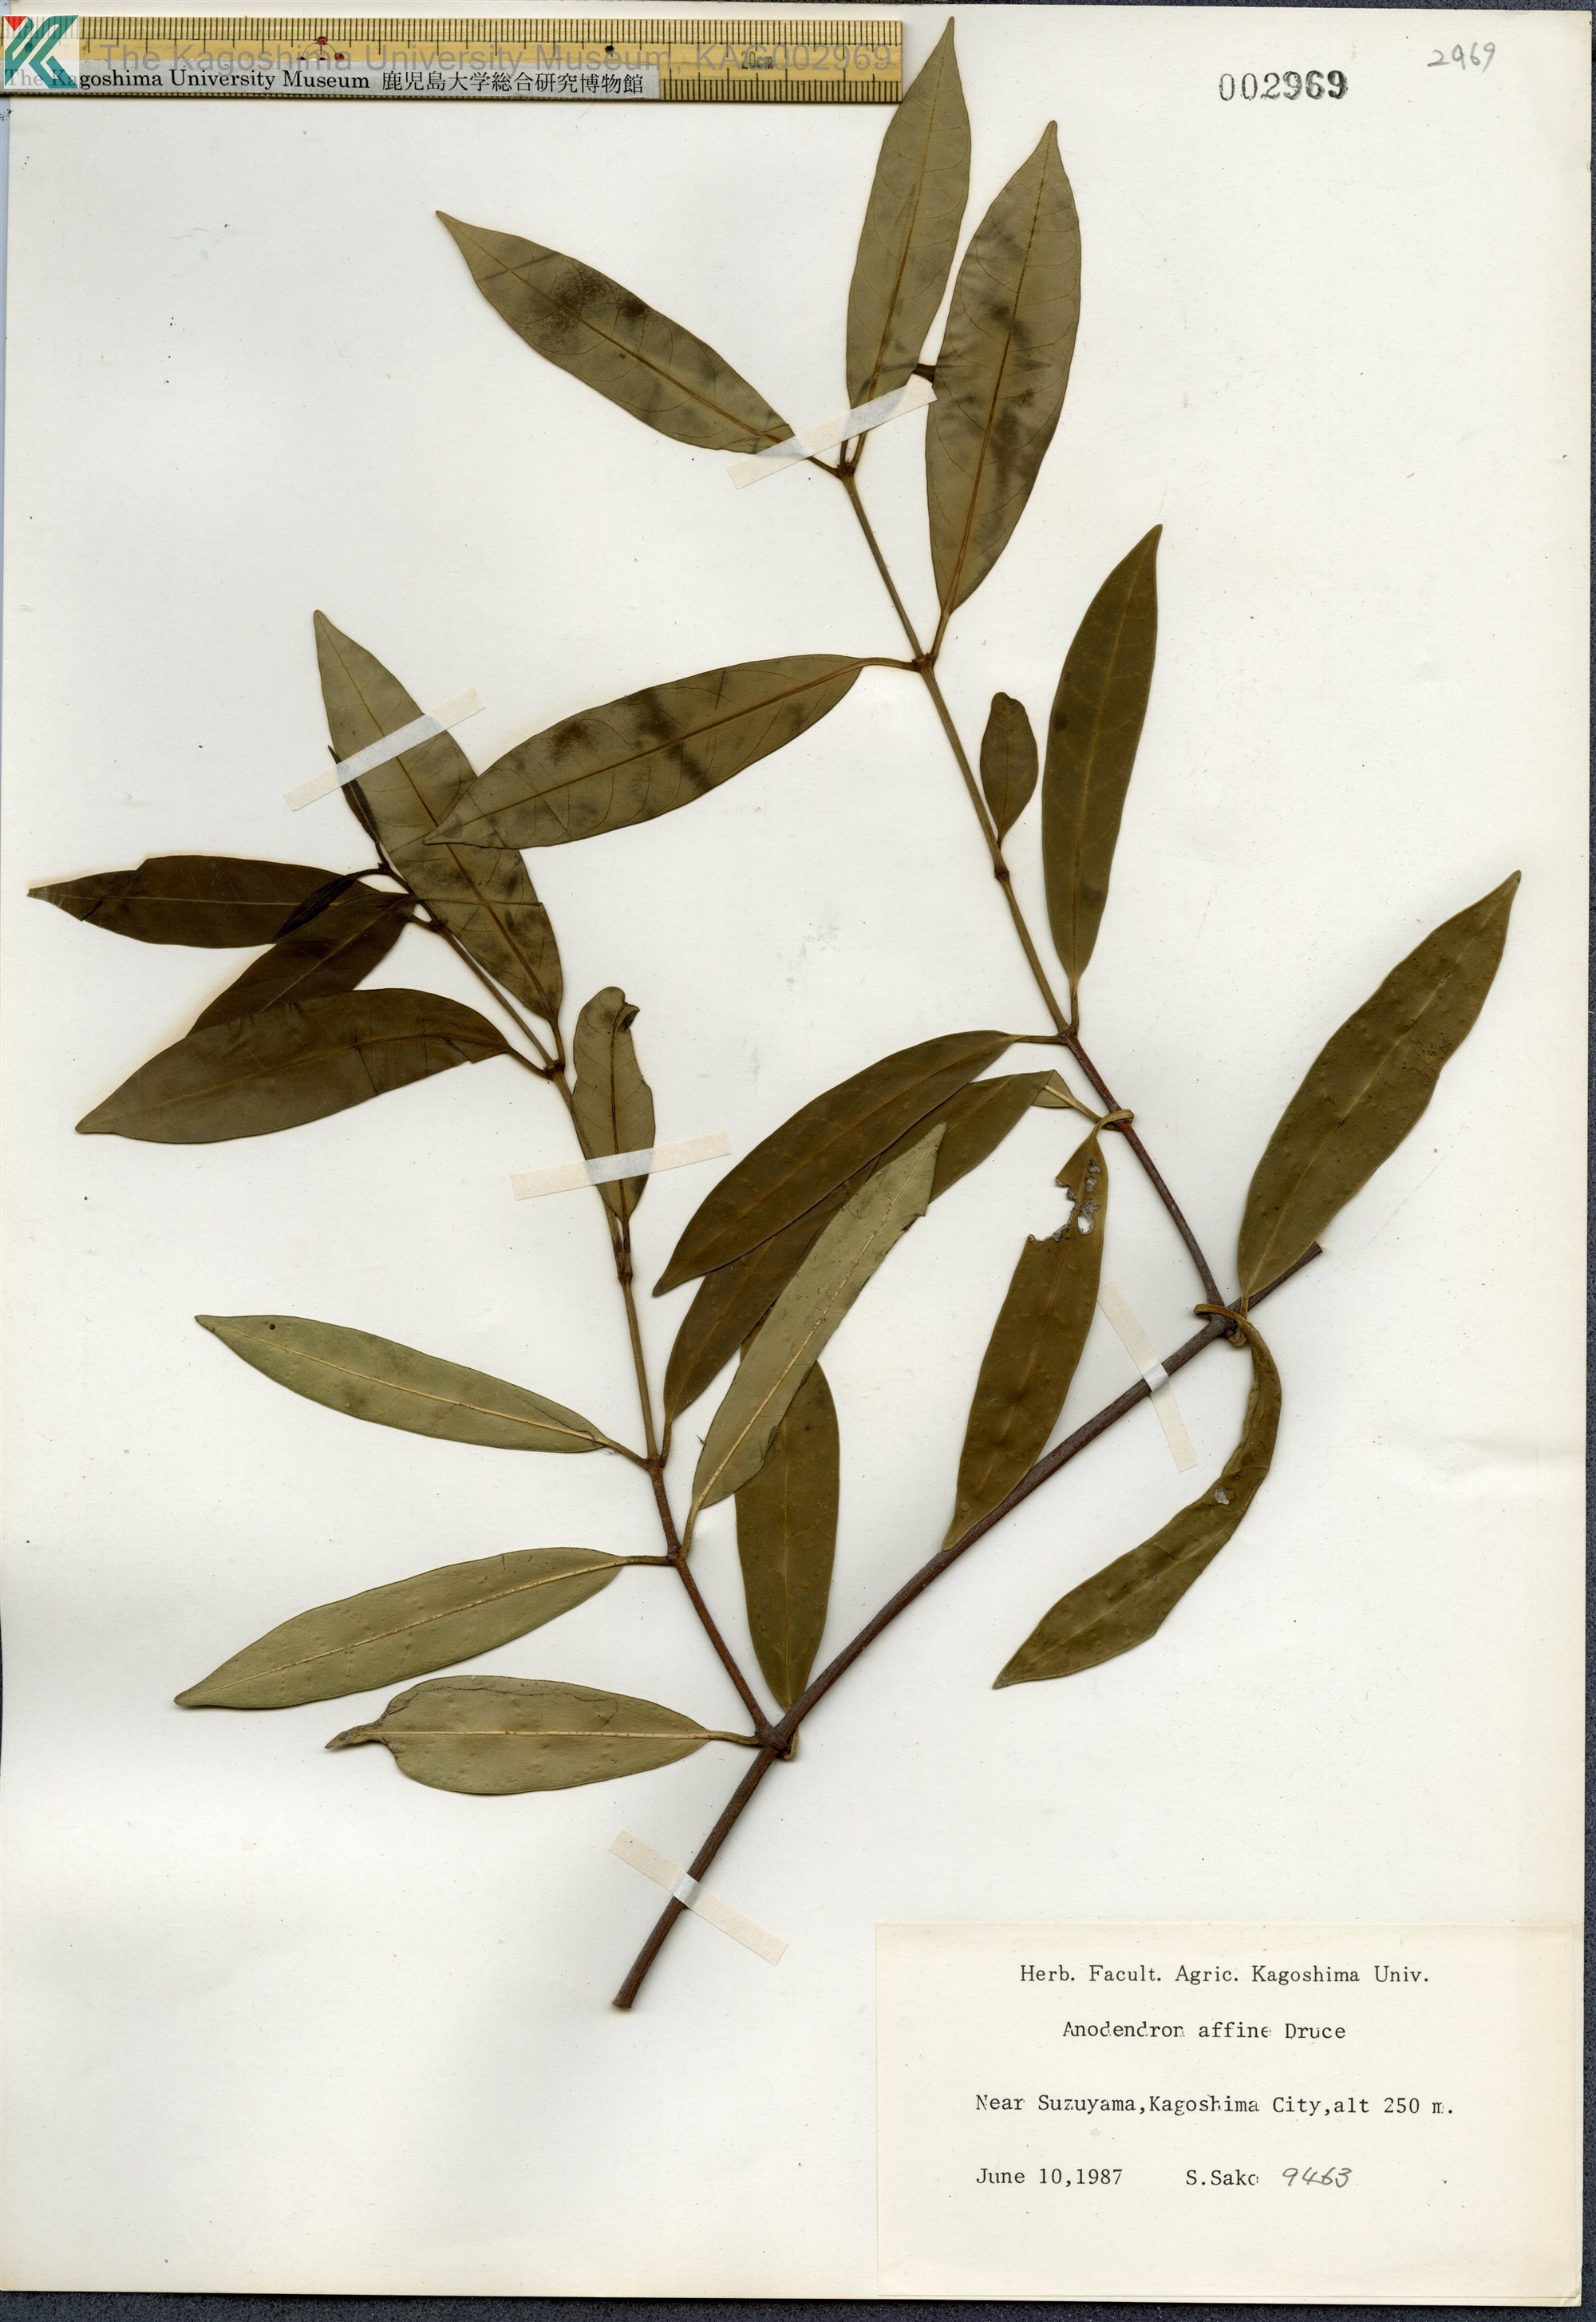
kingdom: Plantae
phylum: Tracheophyta
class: Magnoliopsida
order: Gentianales
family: Apocynaceae
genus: Anodendron
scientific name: Anodendron affine
